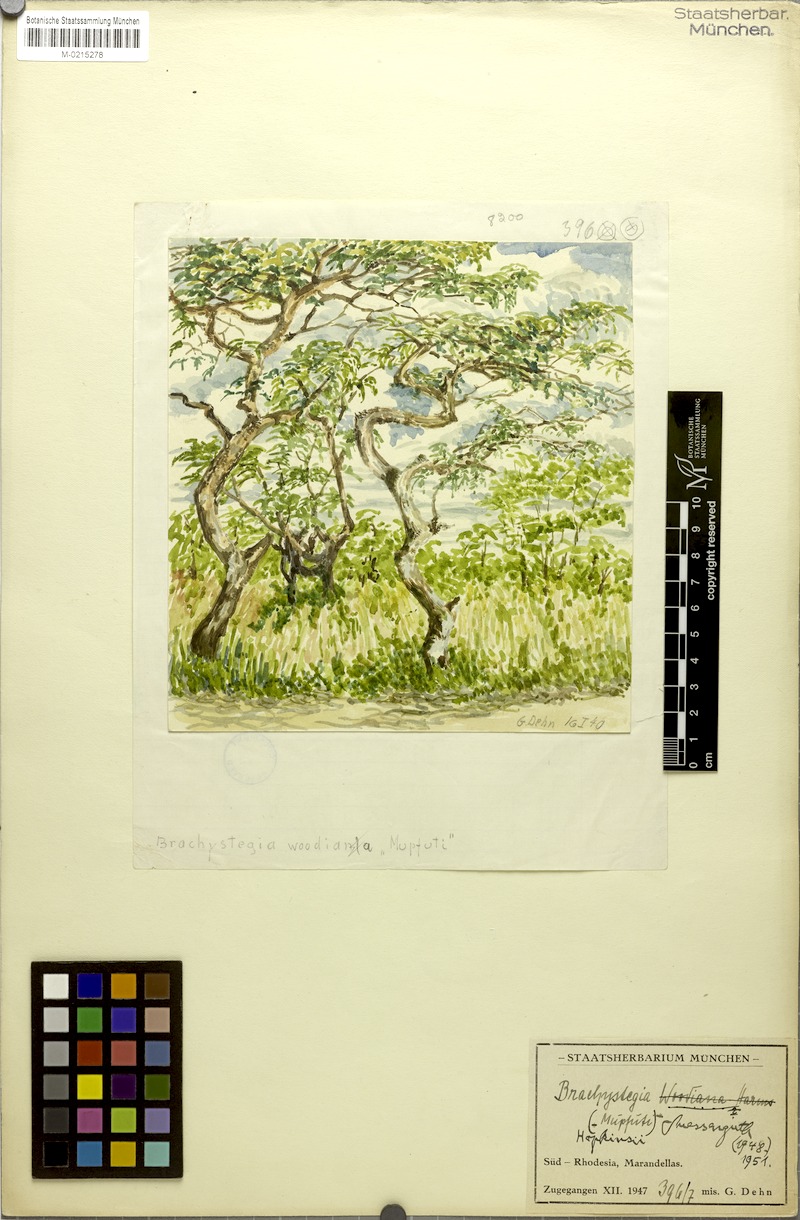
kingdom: Plantae
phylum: Tracheophyta
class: Magnoliopsida
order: Fabales
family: Fabaceae
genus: Brachystegia
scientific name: Brachystegia boehmii
